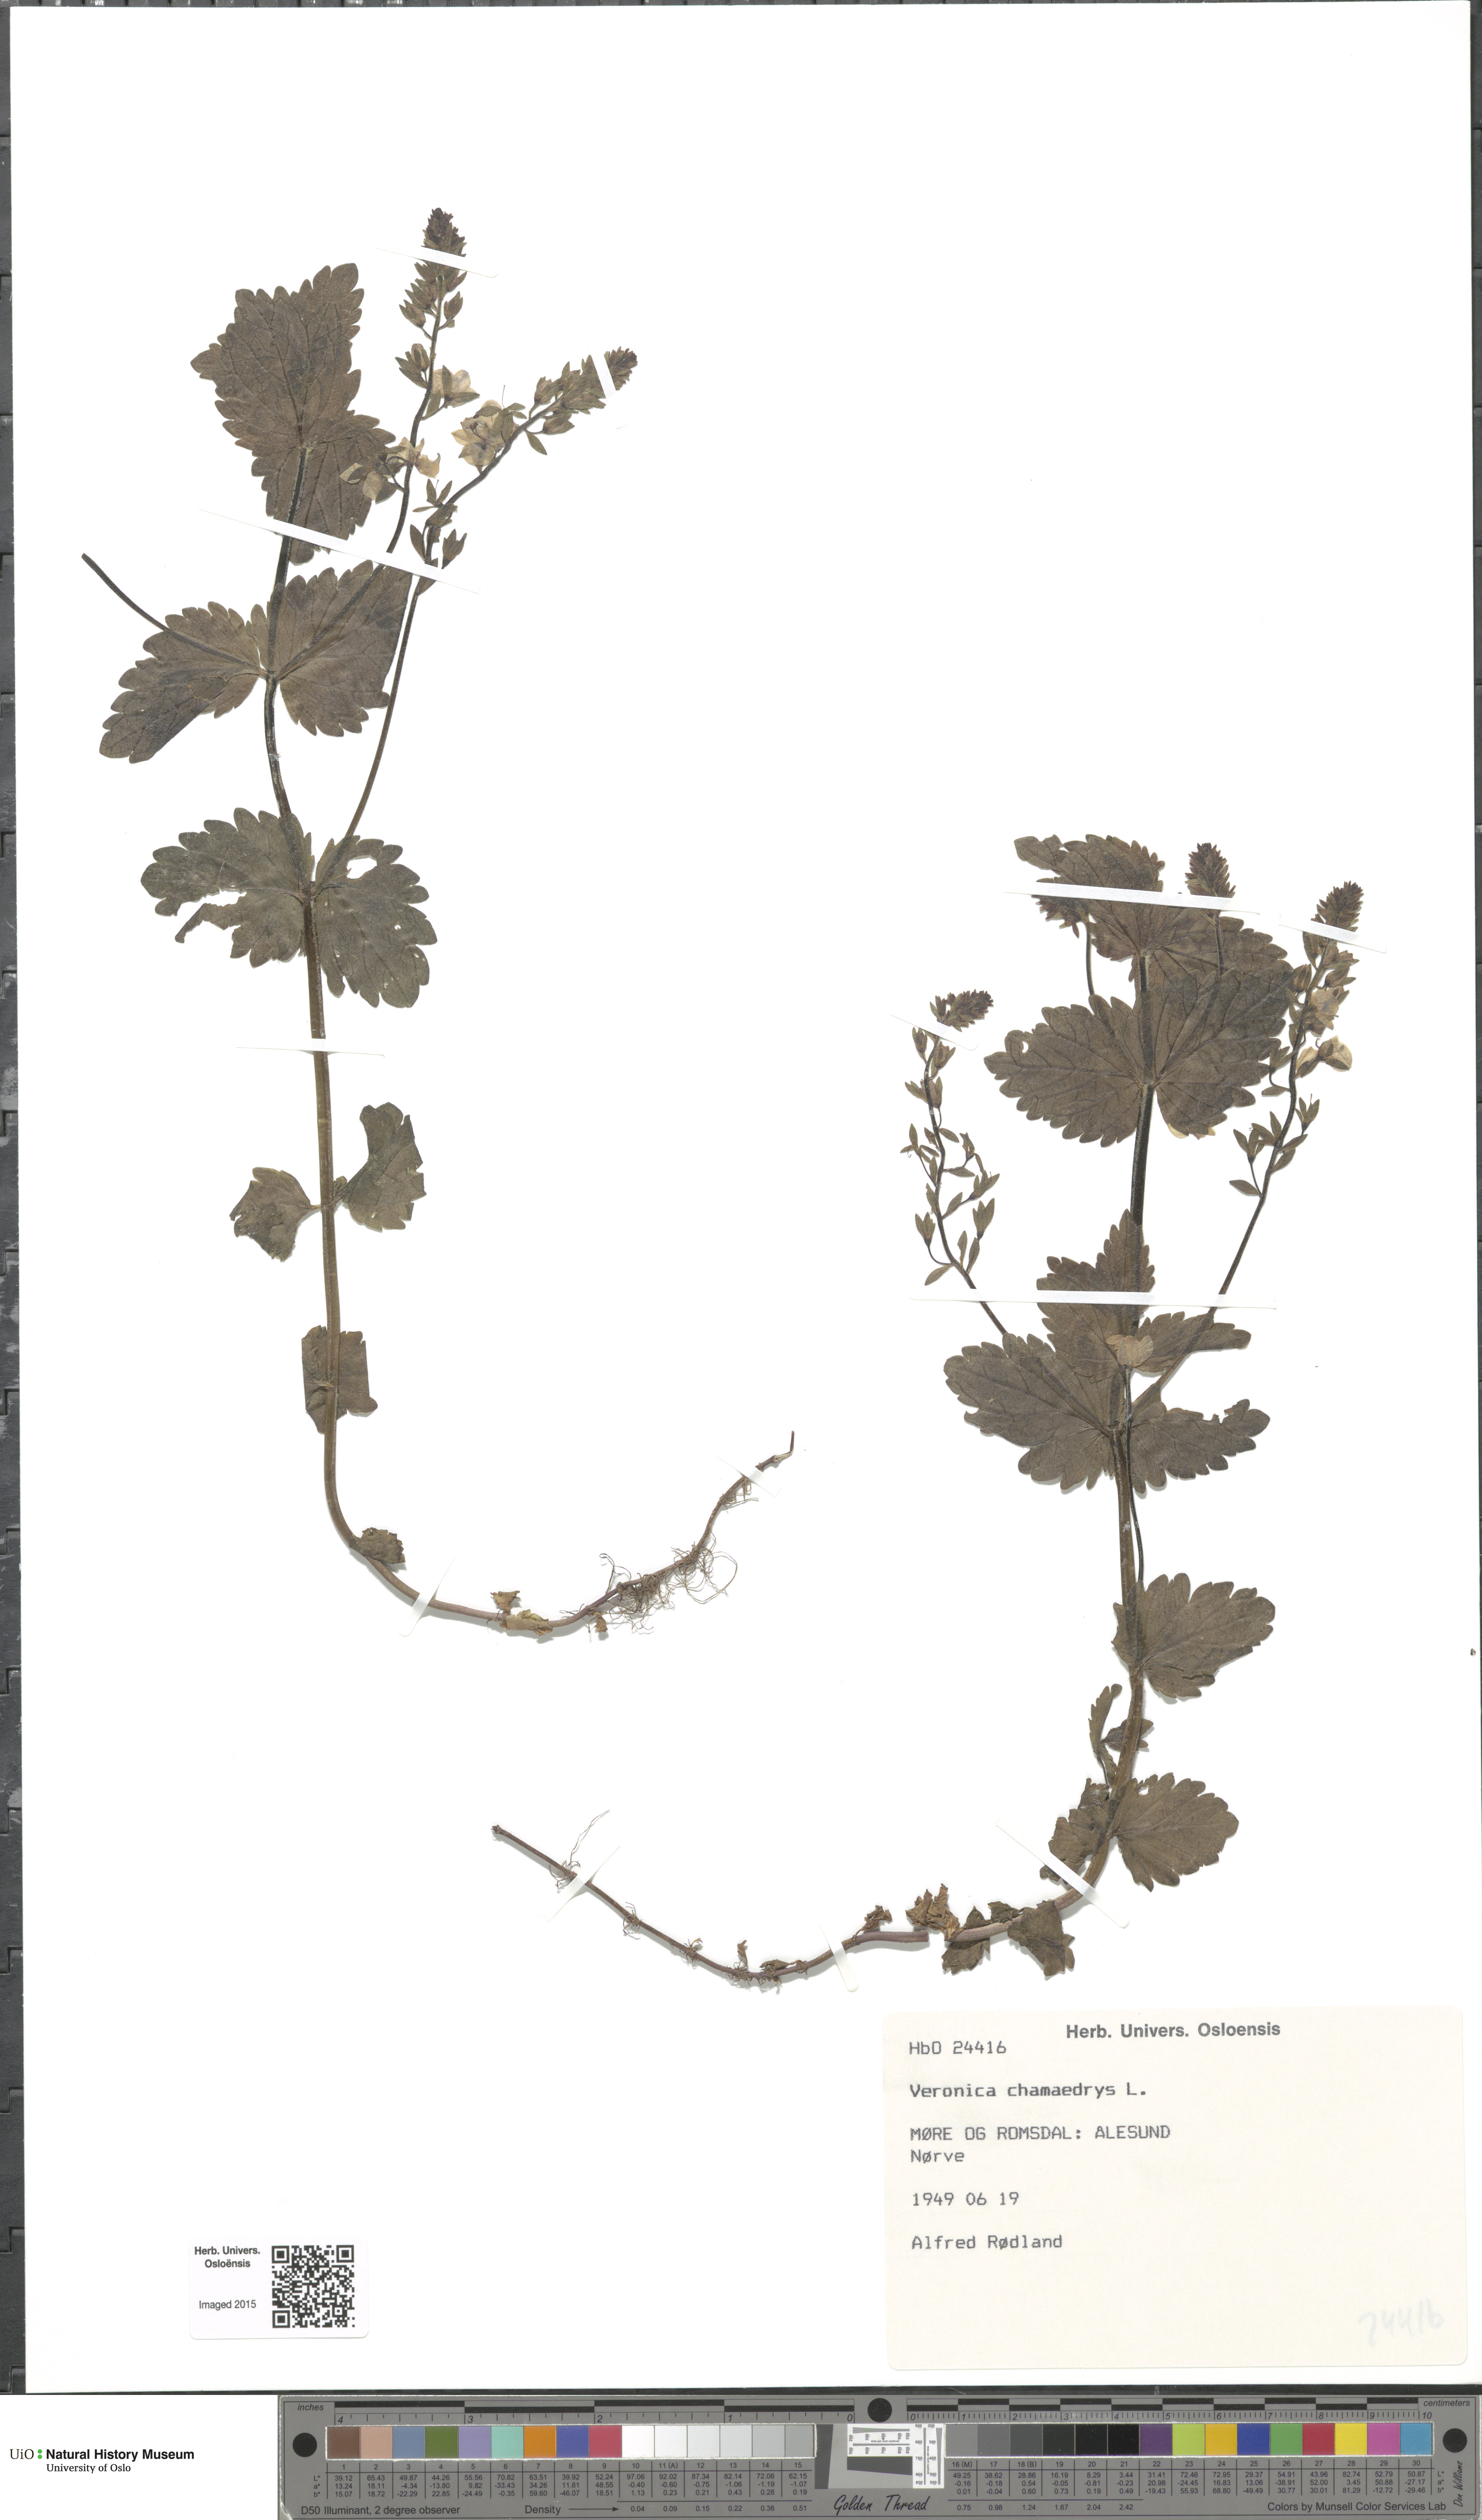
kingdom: Plantae
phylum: Tracheophyta
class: Magnoliopsida
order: Lamiales
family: Plantaginaceae
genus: Veronica
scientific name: Veronica chamaedrys
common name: Germander speedwell
